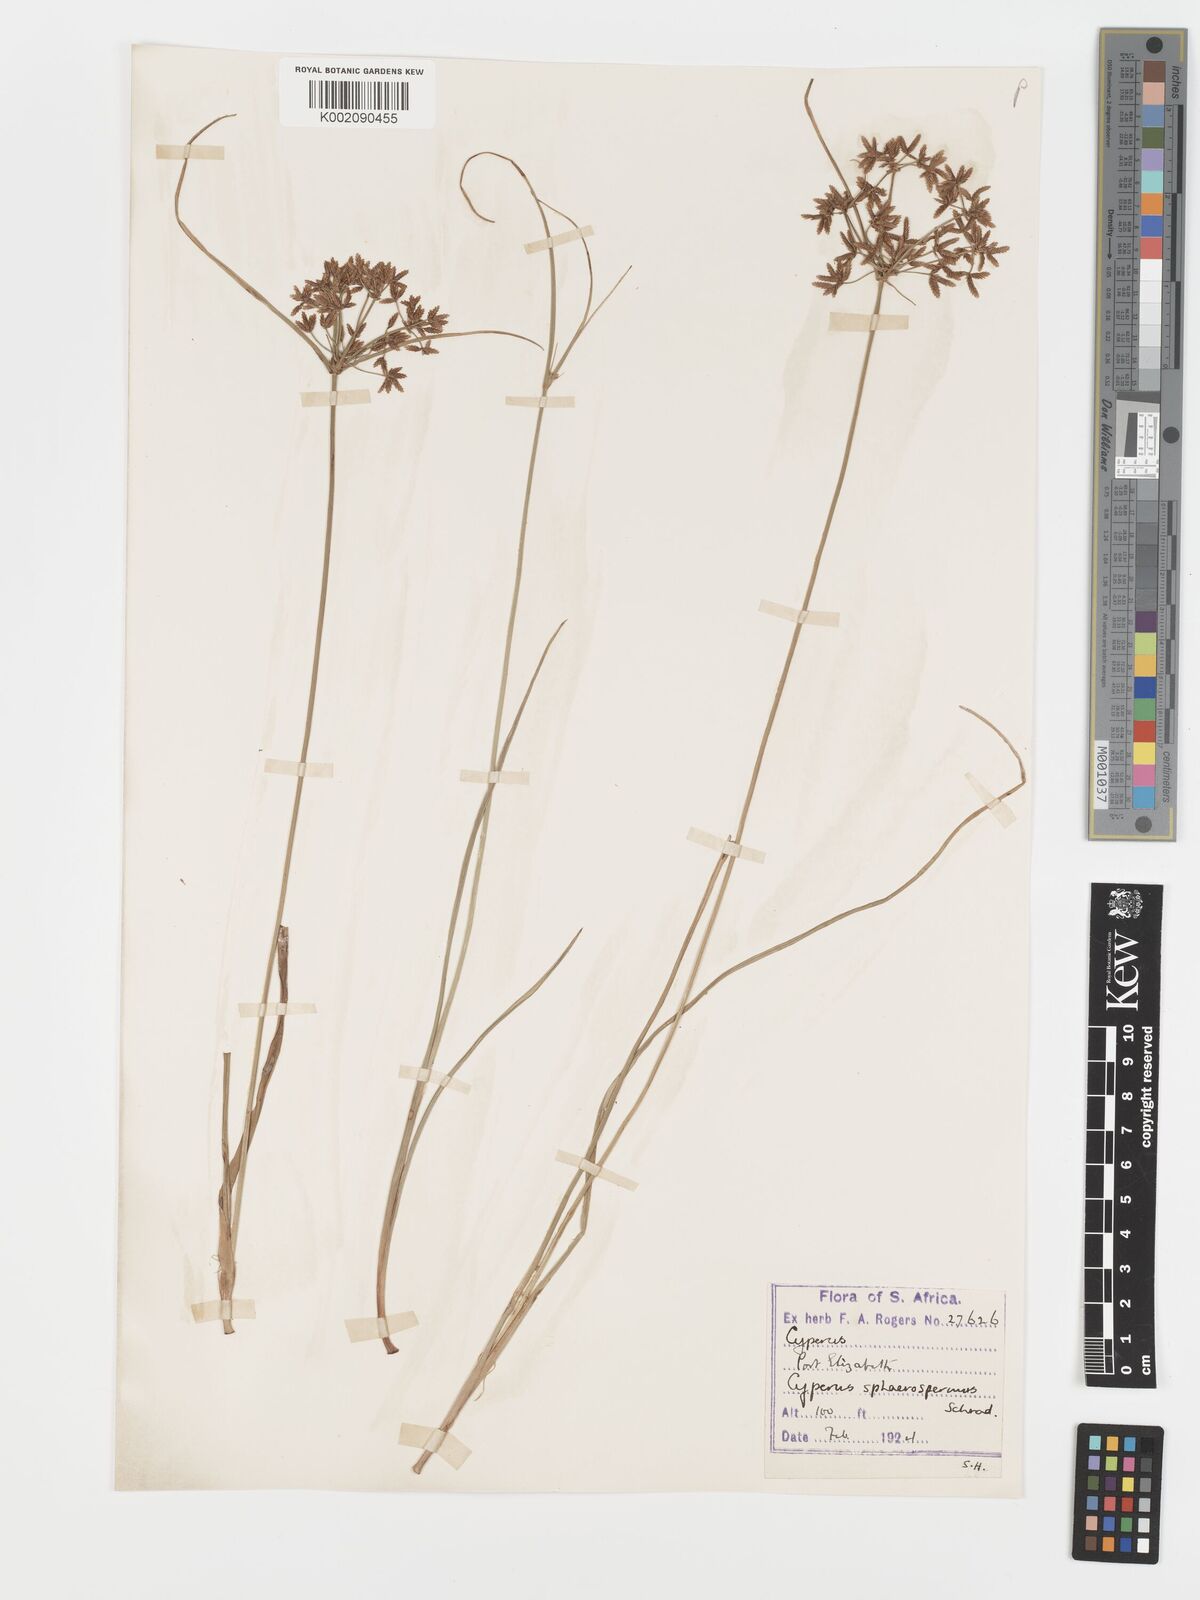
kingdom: Plantae
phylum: Tracheophyta
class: Liliopsida
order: Poales
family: Cyperaceae
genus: Cyperus
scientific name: Cyperus sphaerospermus
